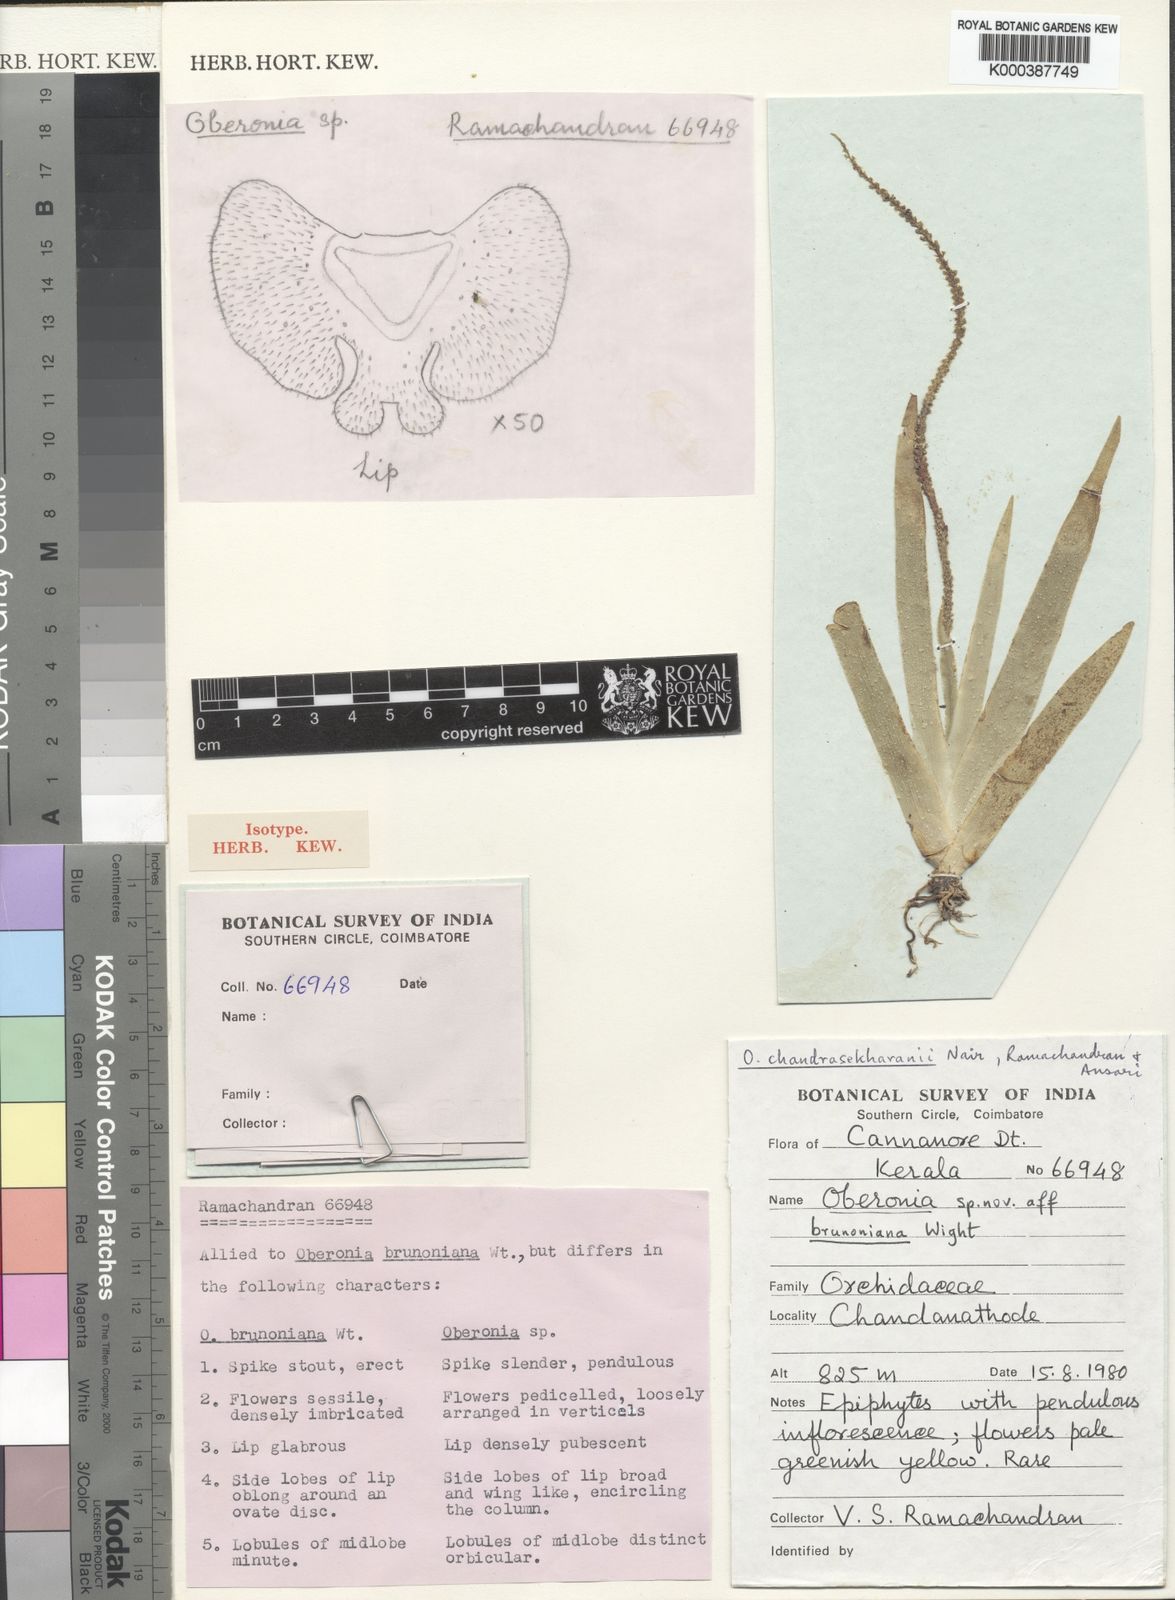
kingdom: Plantae
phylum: Tracheophyta
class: Liliopsida
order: Asparagales
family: Orchidaceae
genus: Oberonia
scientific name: Oberonia chandrasekharanii
